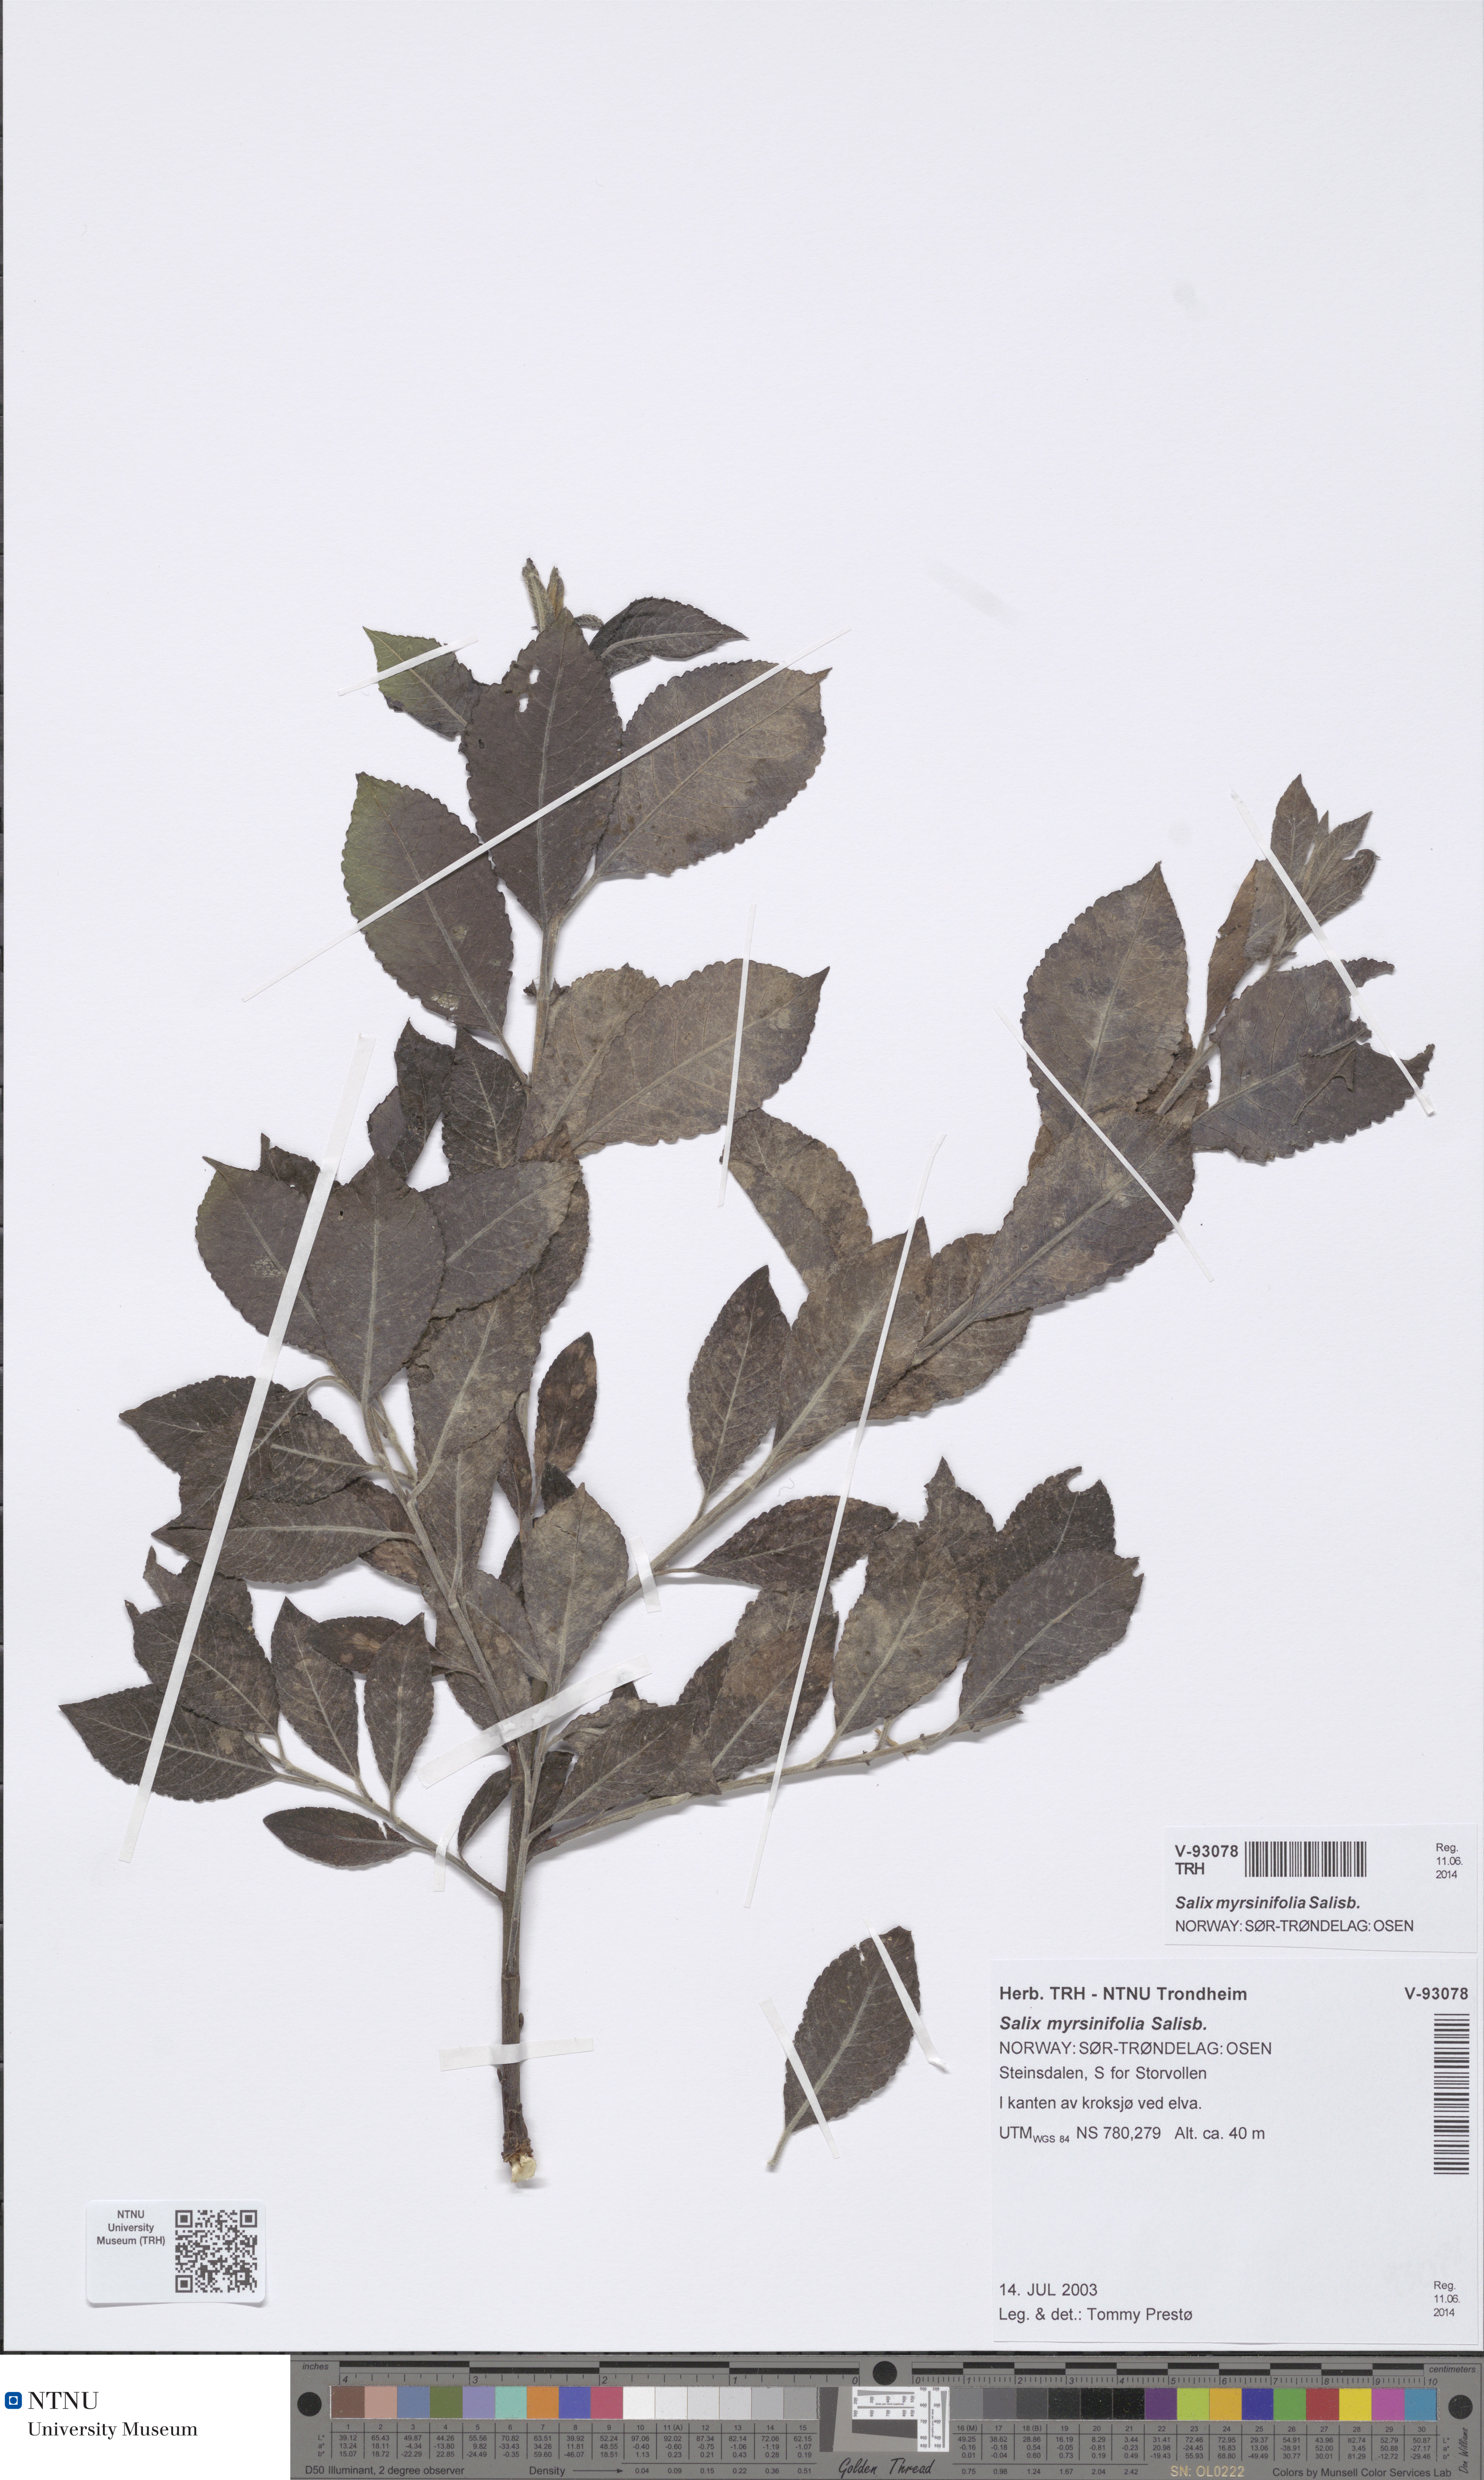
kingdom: Plantae
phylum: Tracheophyta
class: Magnoliopsida
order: Malpighiales
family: Salicaceae
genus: Salix
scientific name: Salix myrsinifolia
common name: Dark-leaved willow
